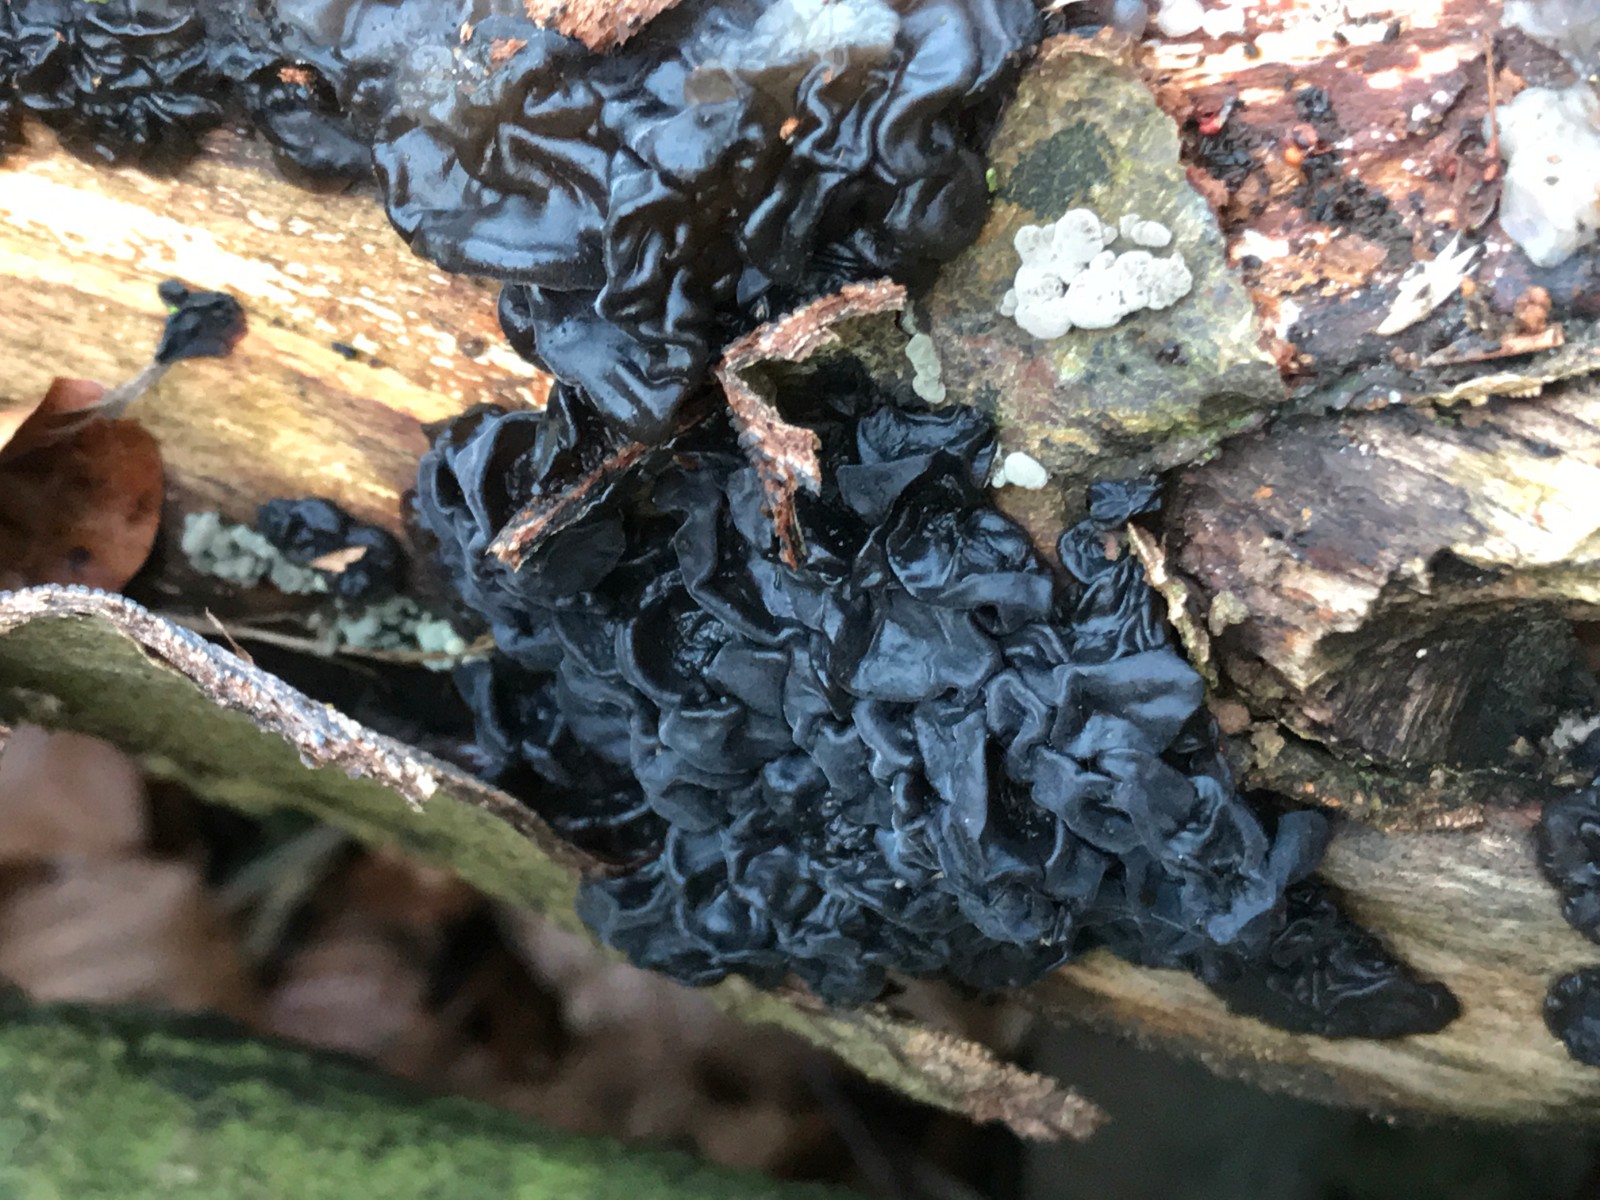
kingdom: Fungi
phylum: Basidiomycota
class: Agaricomycetes
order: Auriculariales
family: Auriculariaceae
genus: Exidia
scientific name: Exidia nigricans
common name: almindelig bævretop
